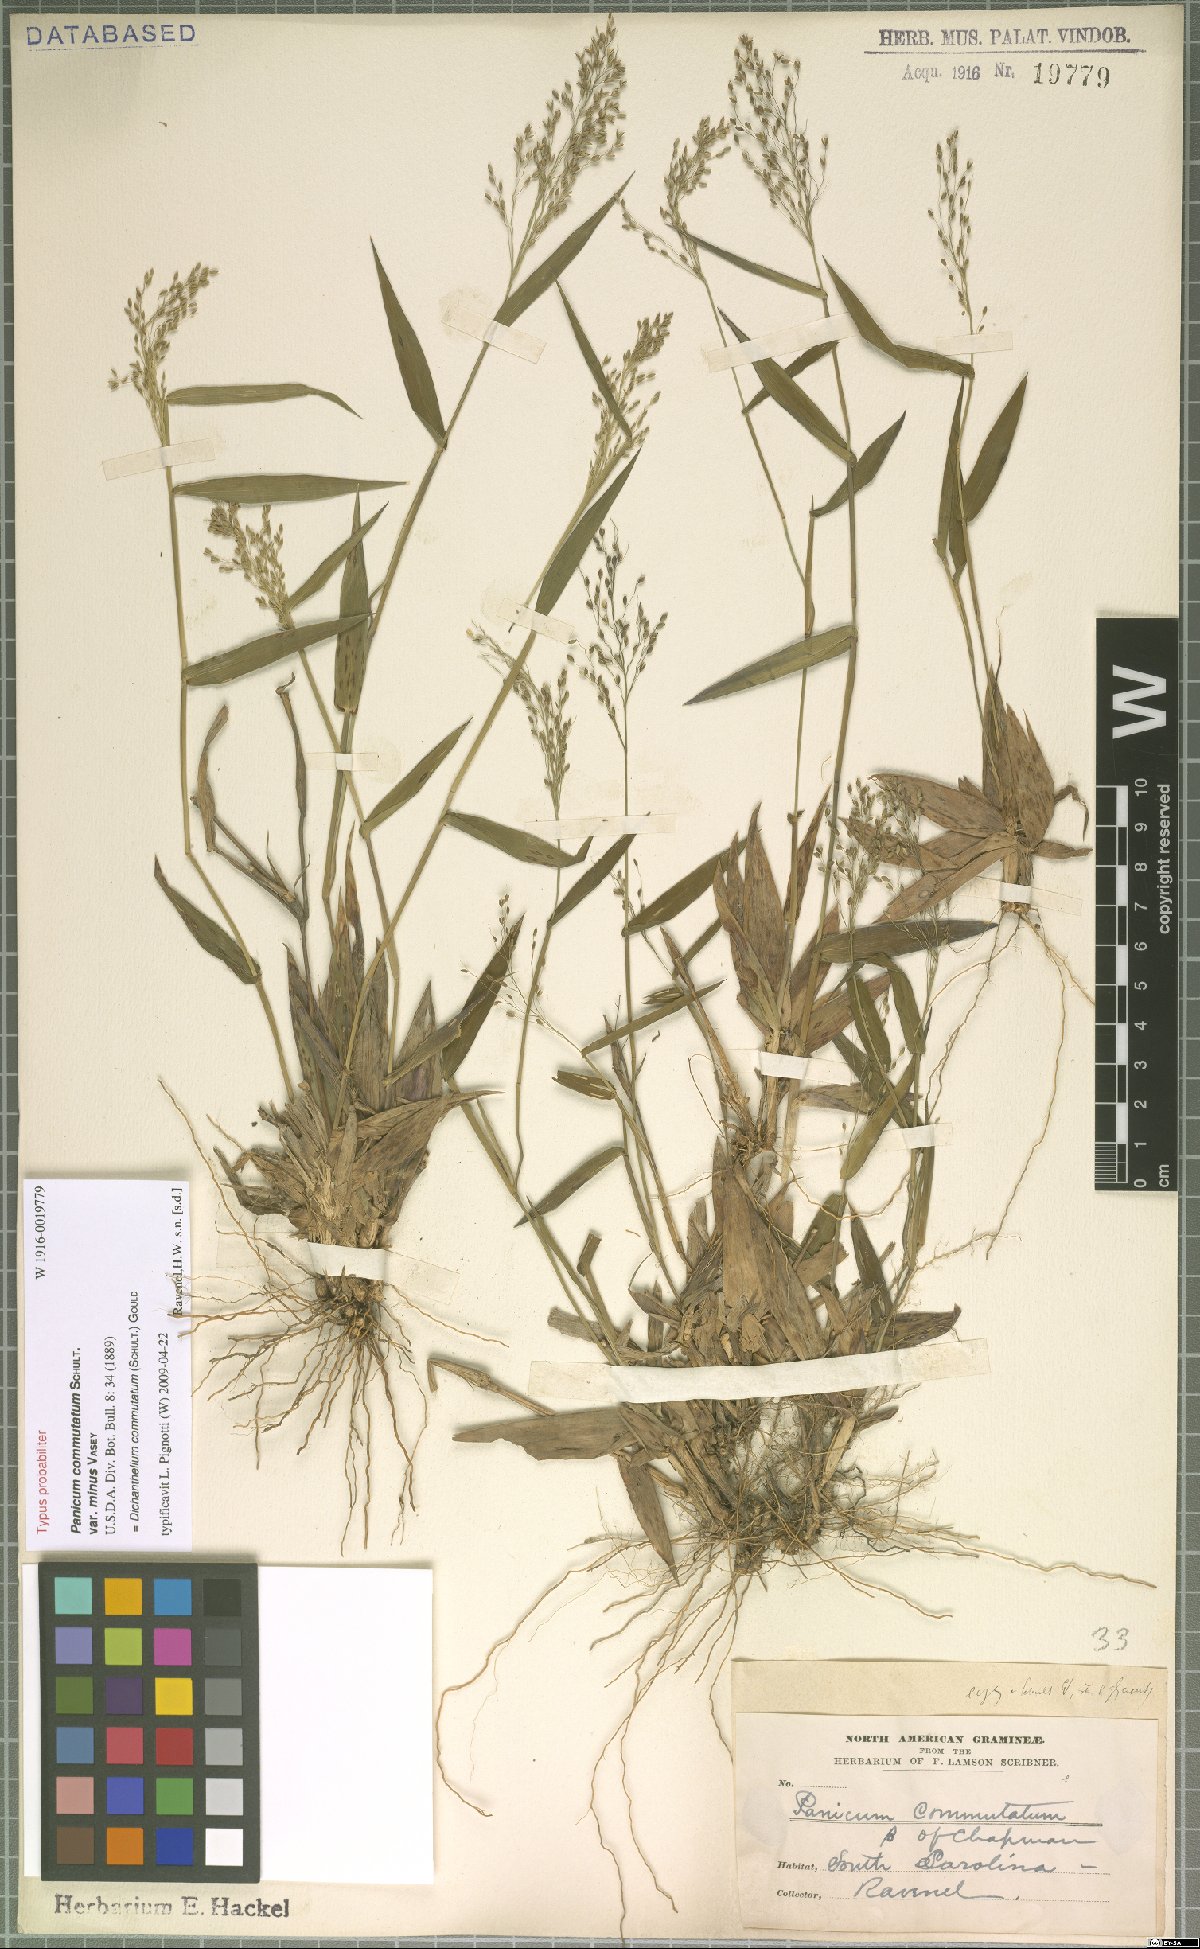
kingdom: Plantae
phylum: Tracheophyta
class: Liliopsida
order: Poales
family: Poaceae
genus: Dichanthelium
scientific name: Dichanthelium commutatum
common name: Variable witchgrass
